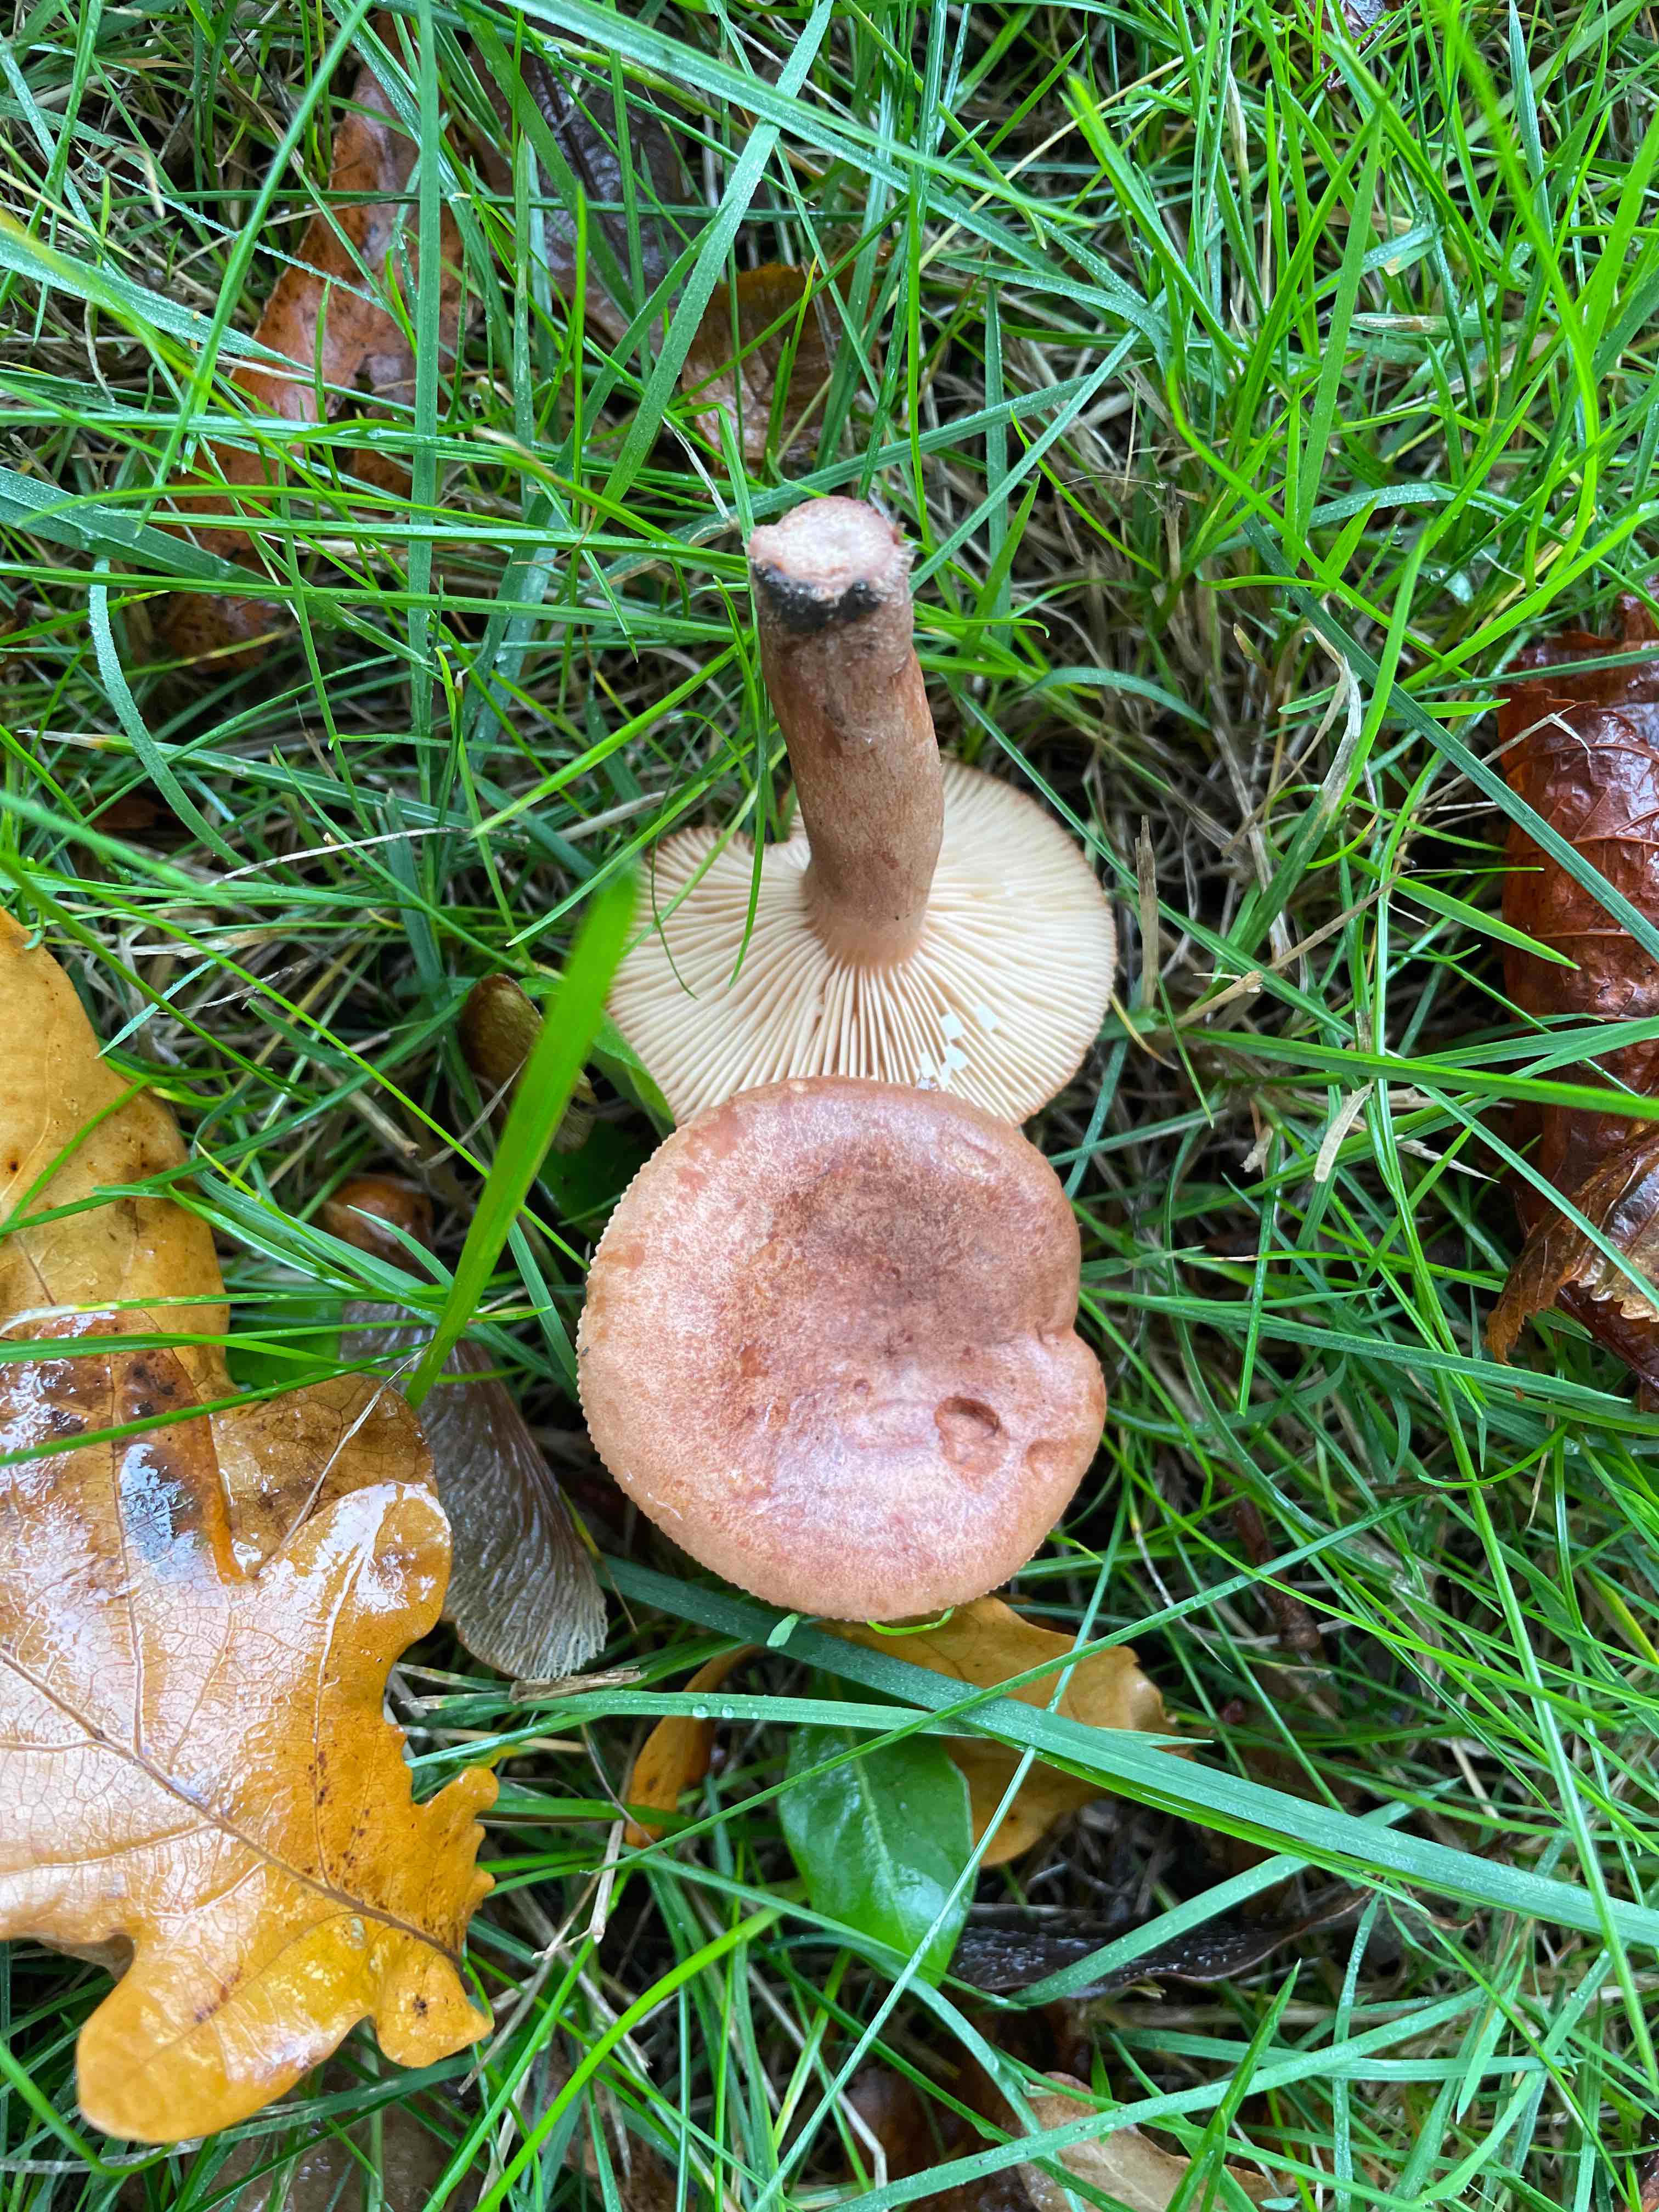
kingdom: Fungi
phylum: Basidiomycota
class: Agaricomycetes
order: Russulales
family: Russulaceae
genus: Lactarius
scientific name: Lactarius quietus
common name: ege-mælkehat
